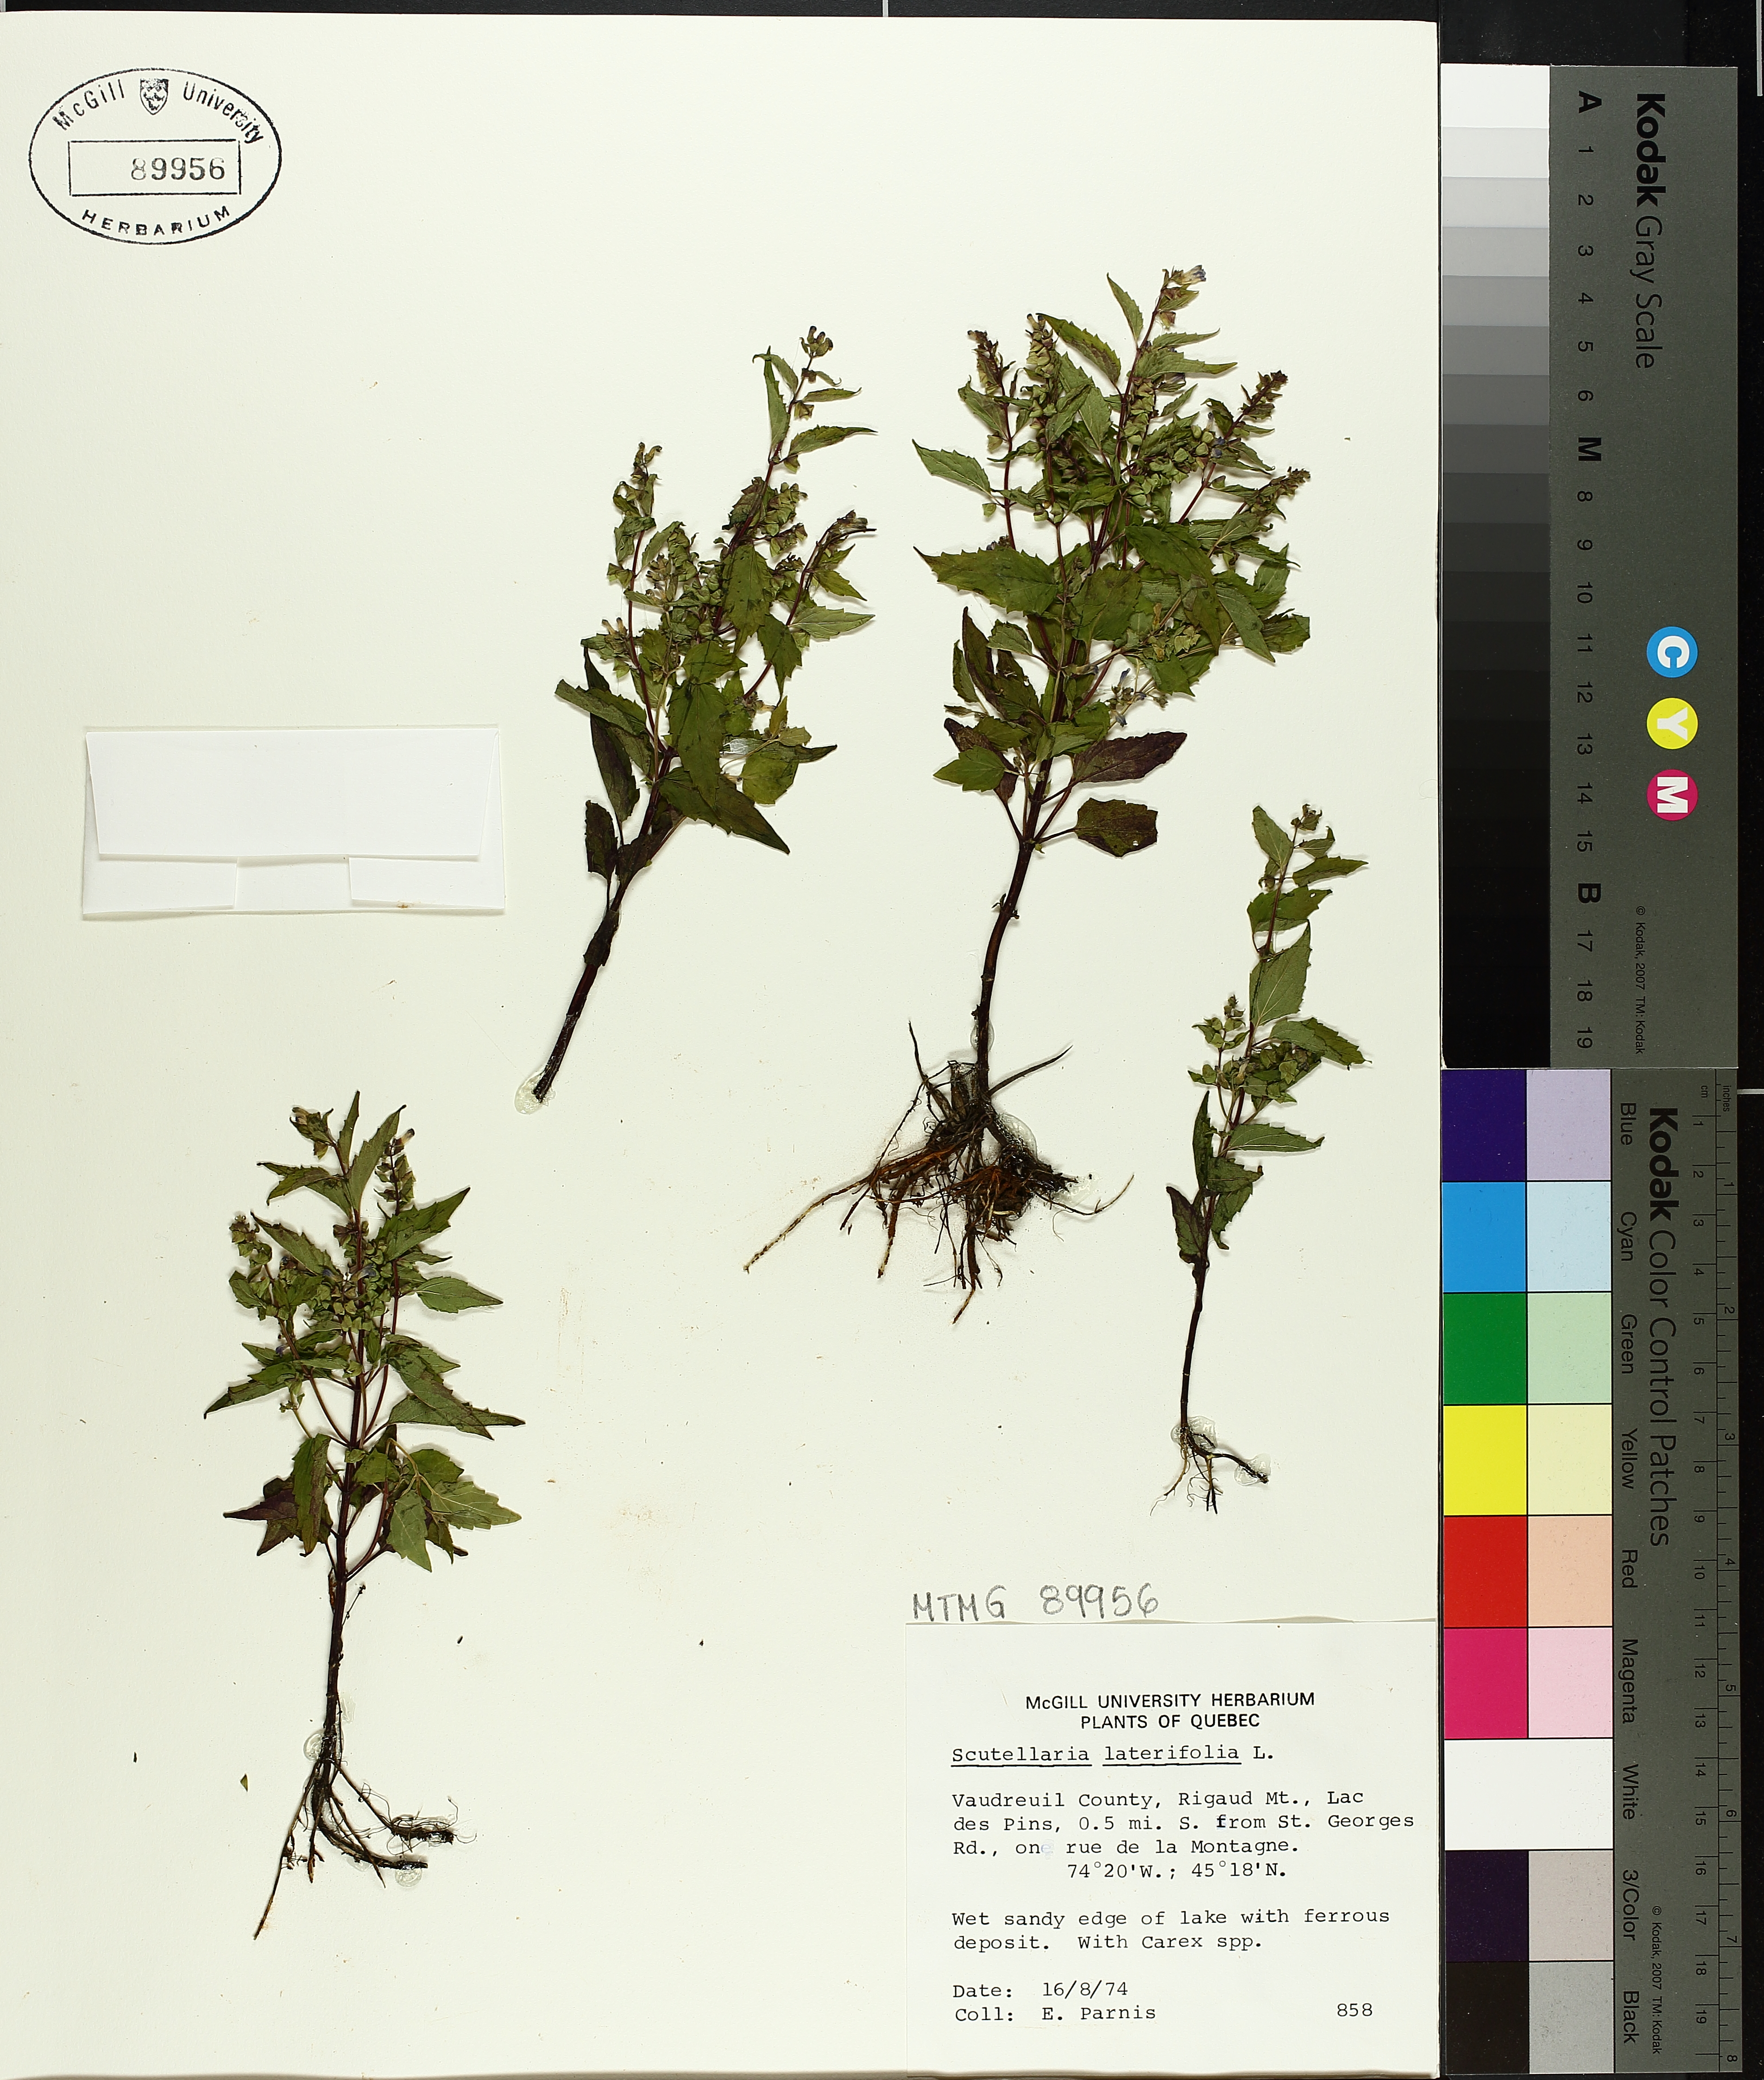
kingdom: Plantae
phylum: Tracheophyta
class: Magnoliopsida
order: Lamiales
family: Lamiaceae
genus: Scutellaria
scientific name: Scutellaria lateriflora
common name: Blue skullcap
